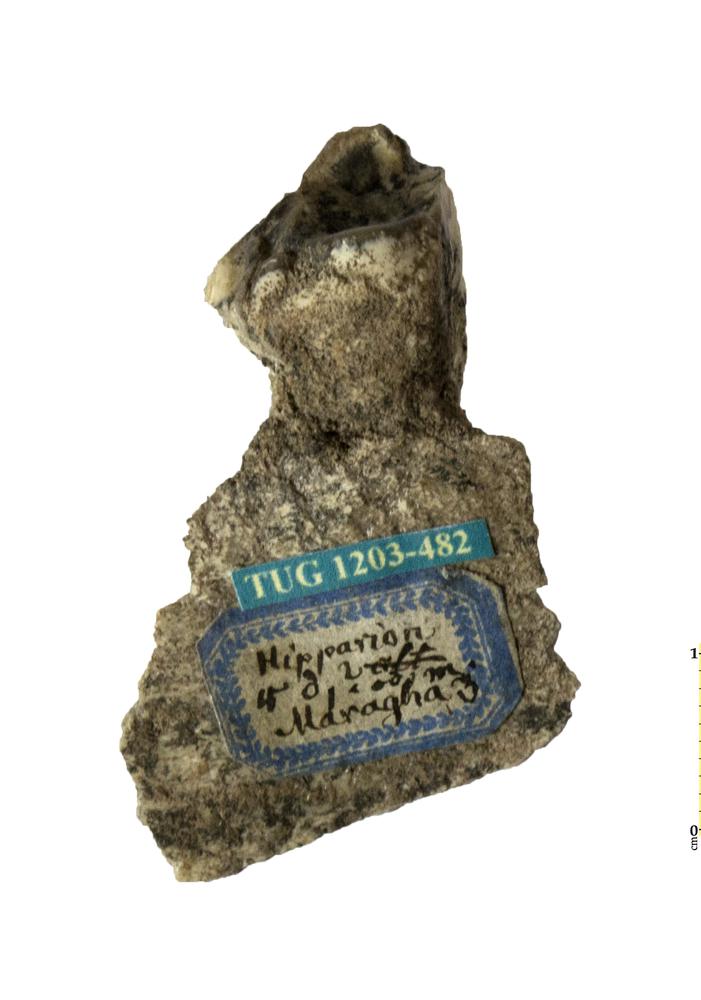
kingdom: Animalia
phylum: Chordata
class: Mammalia
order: Perissodactyla
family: Equidae
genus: Hipparion
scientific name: Hipparion
